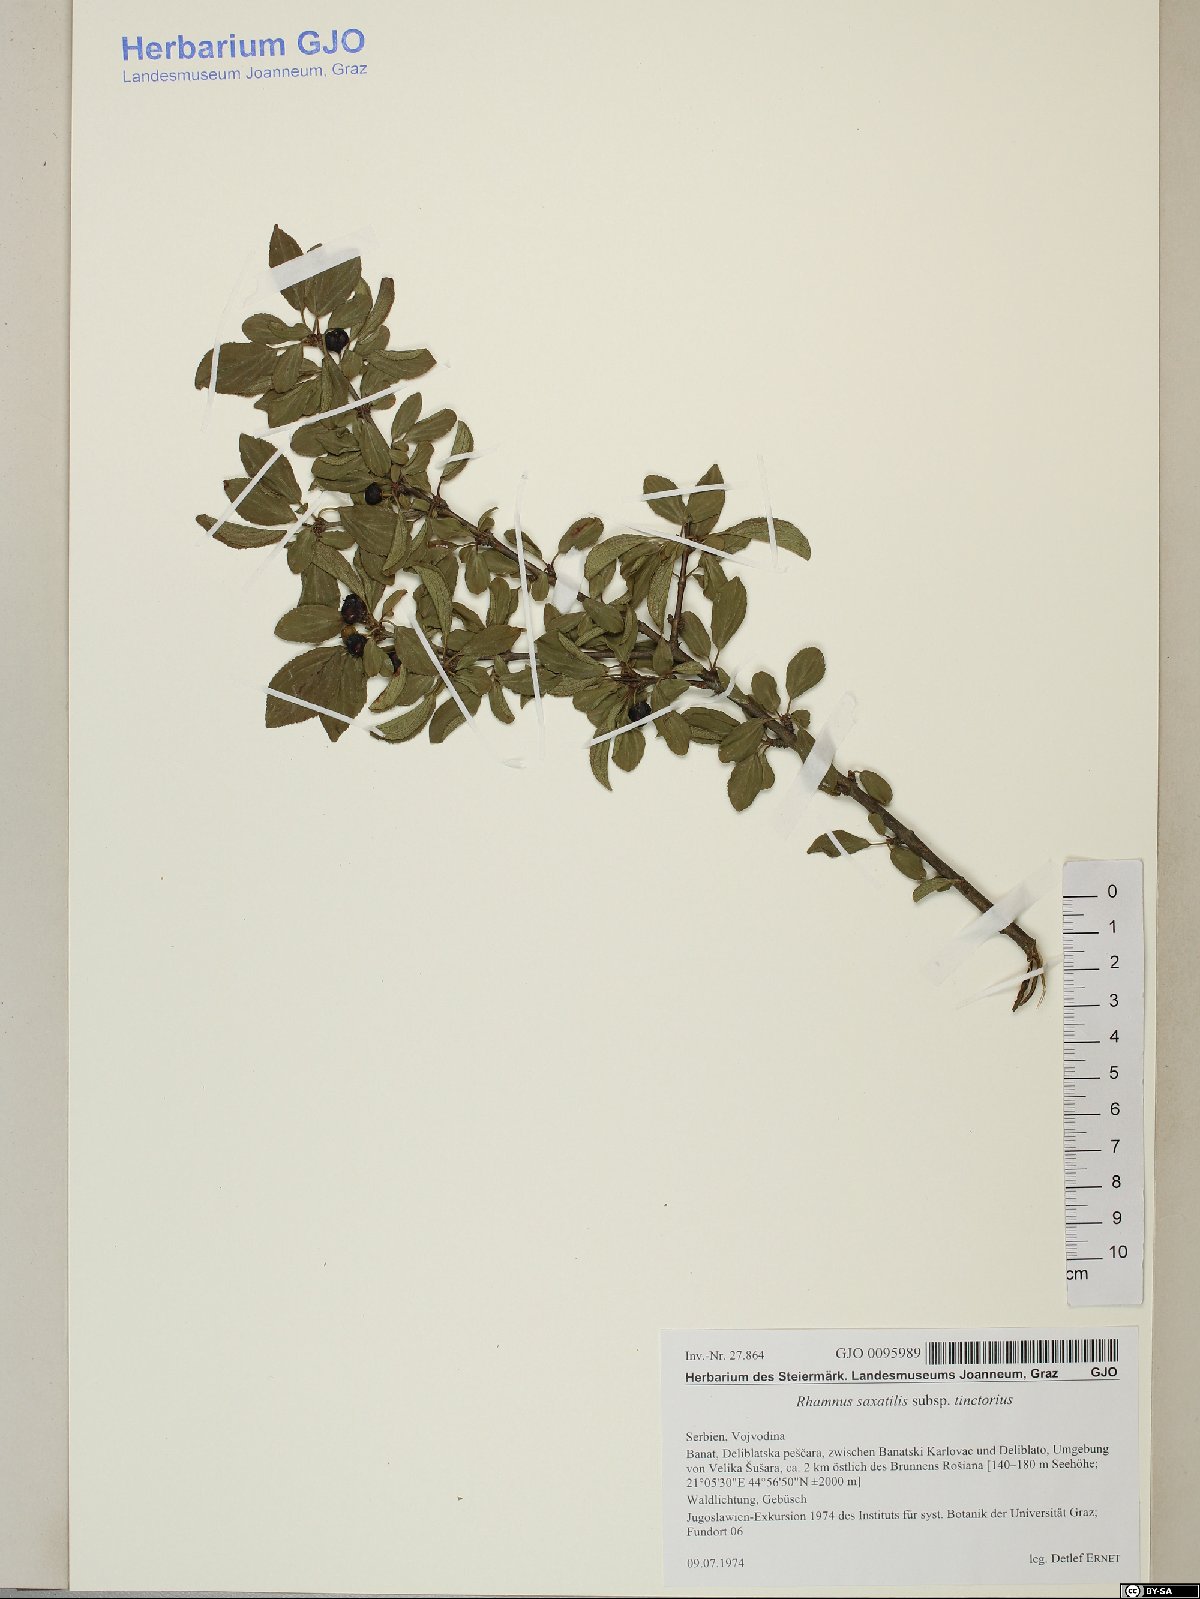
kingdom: Plantae
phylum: Tracheophyta
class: Magnoliopsida
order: Rosales
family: Rhamnaceae
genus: Rhamnus
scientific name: Rhamnus saxatilis
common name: Rock buckthorn
